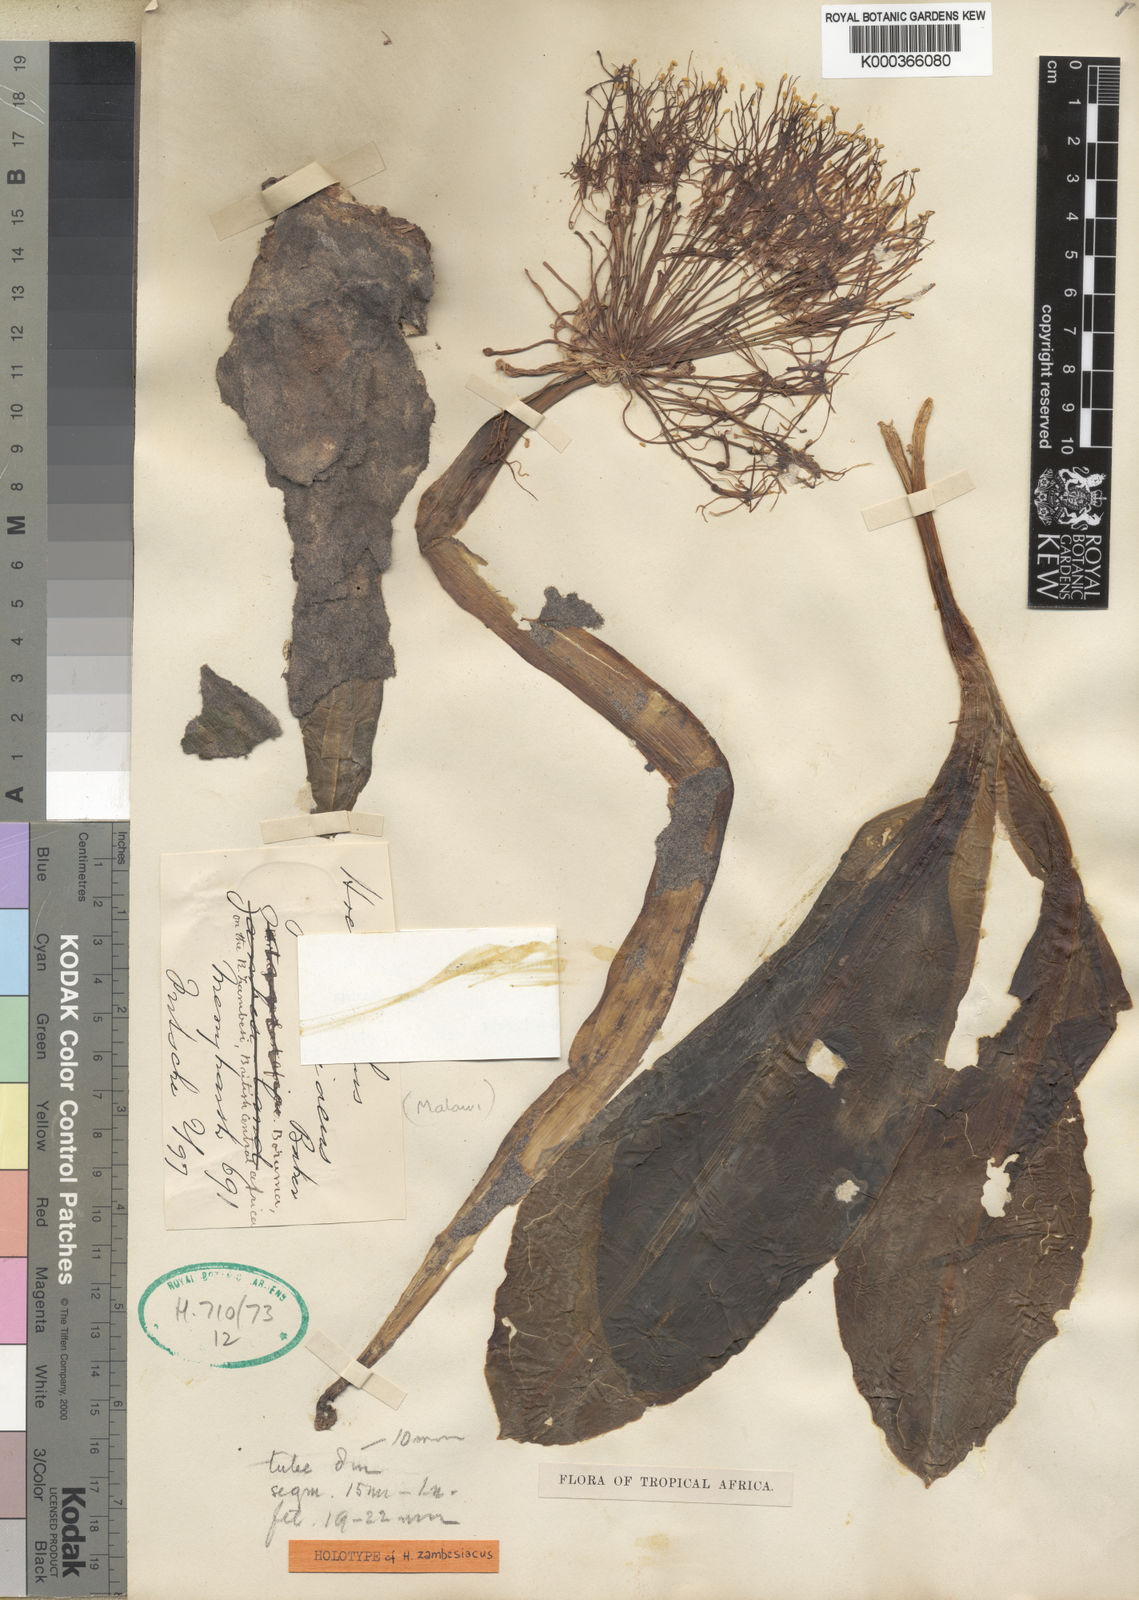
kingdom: Plantae
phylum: Tracheophyta
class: Liliopsida
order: Asparagales
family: Amaryllidaceae
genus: Scadoxus
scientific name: Scadoxus multiflorus
